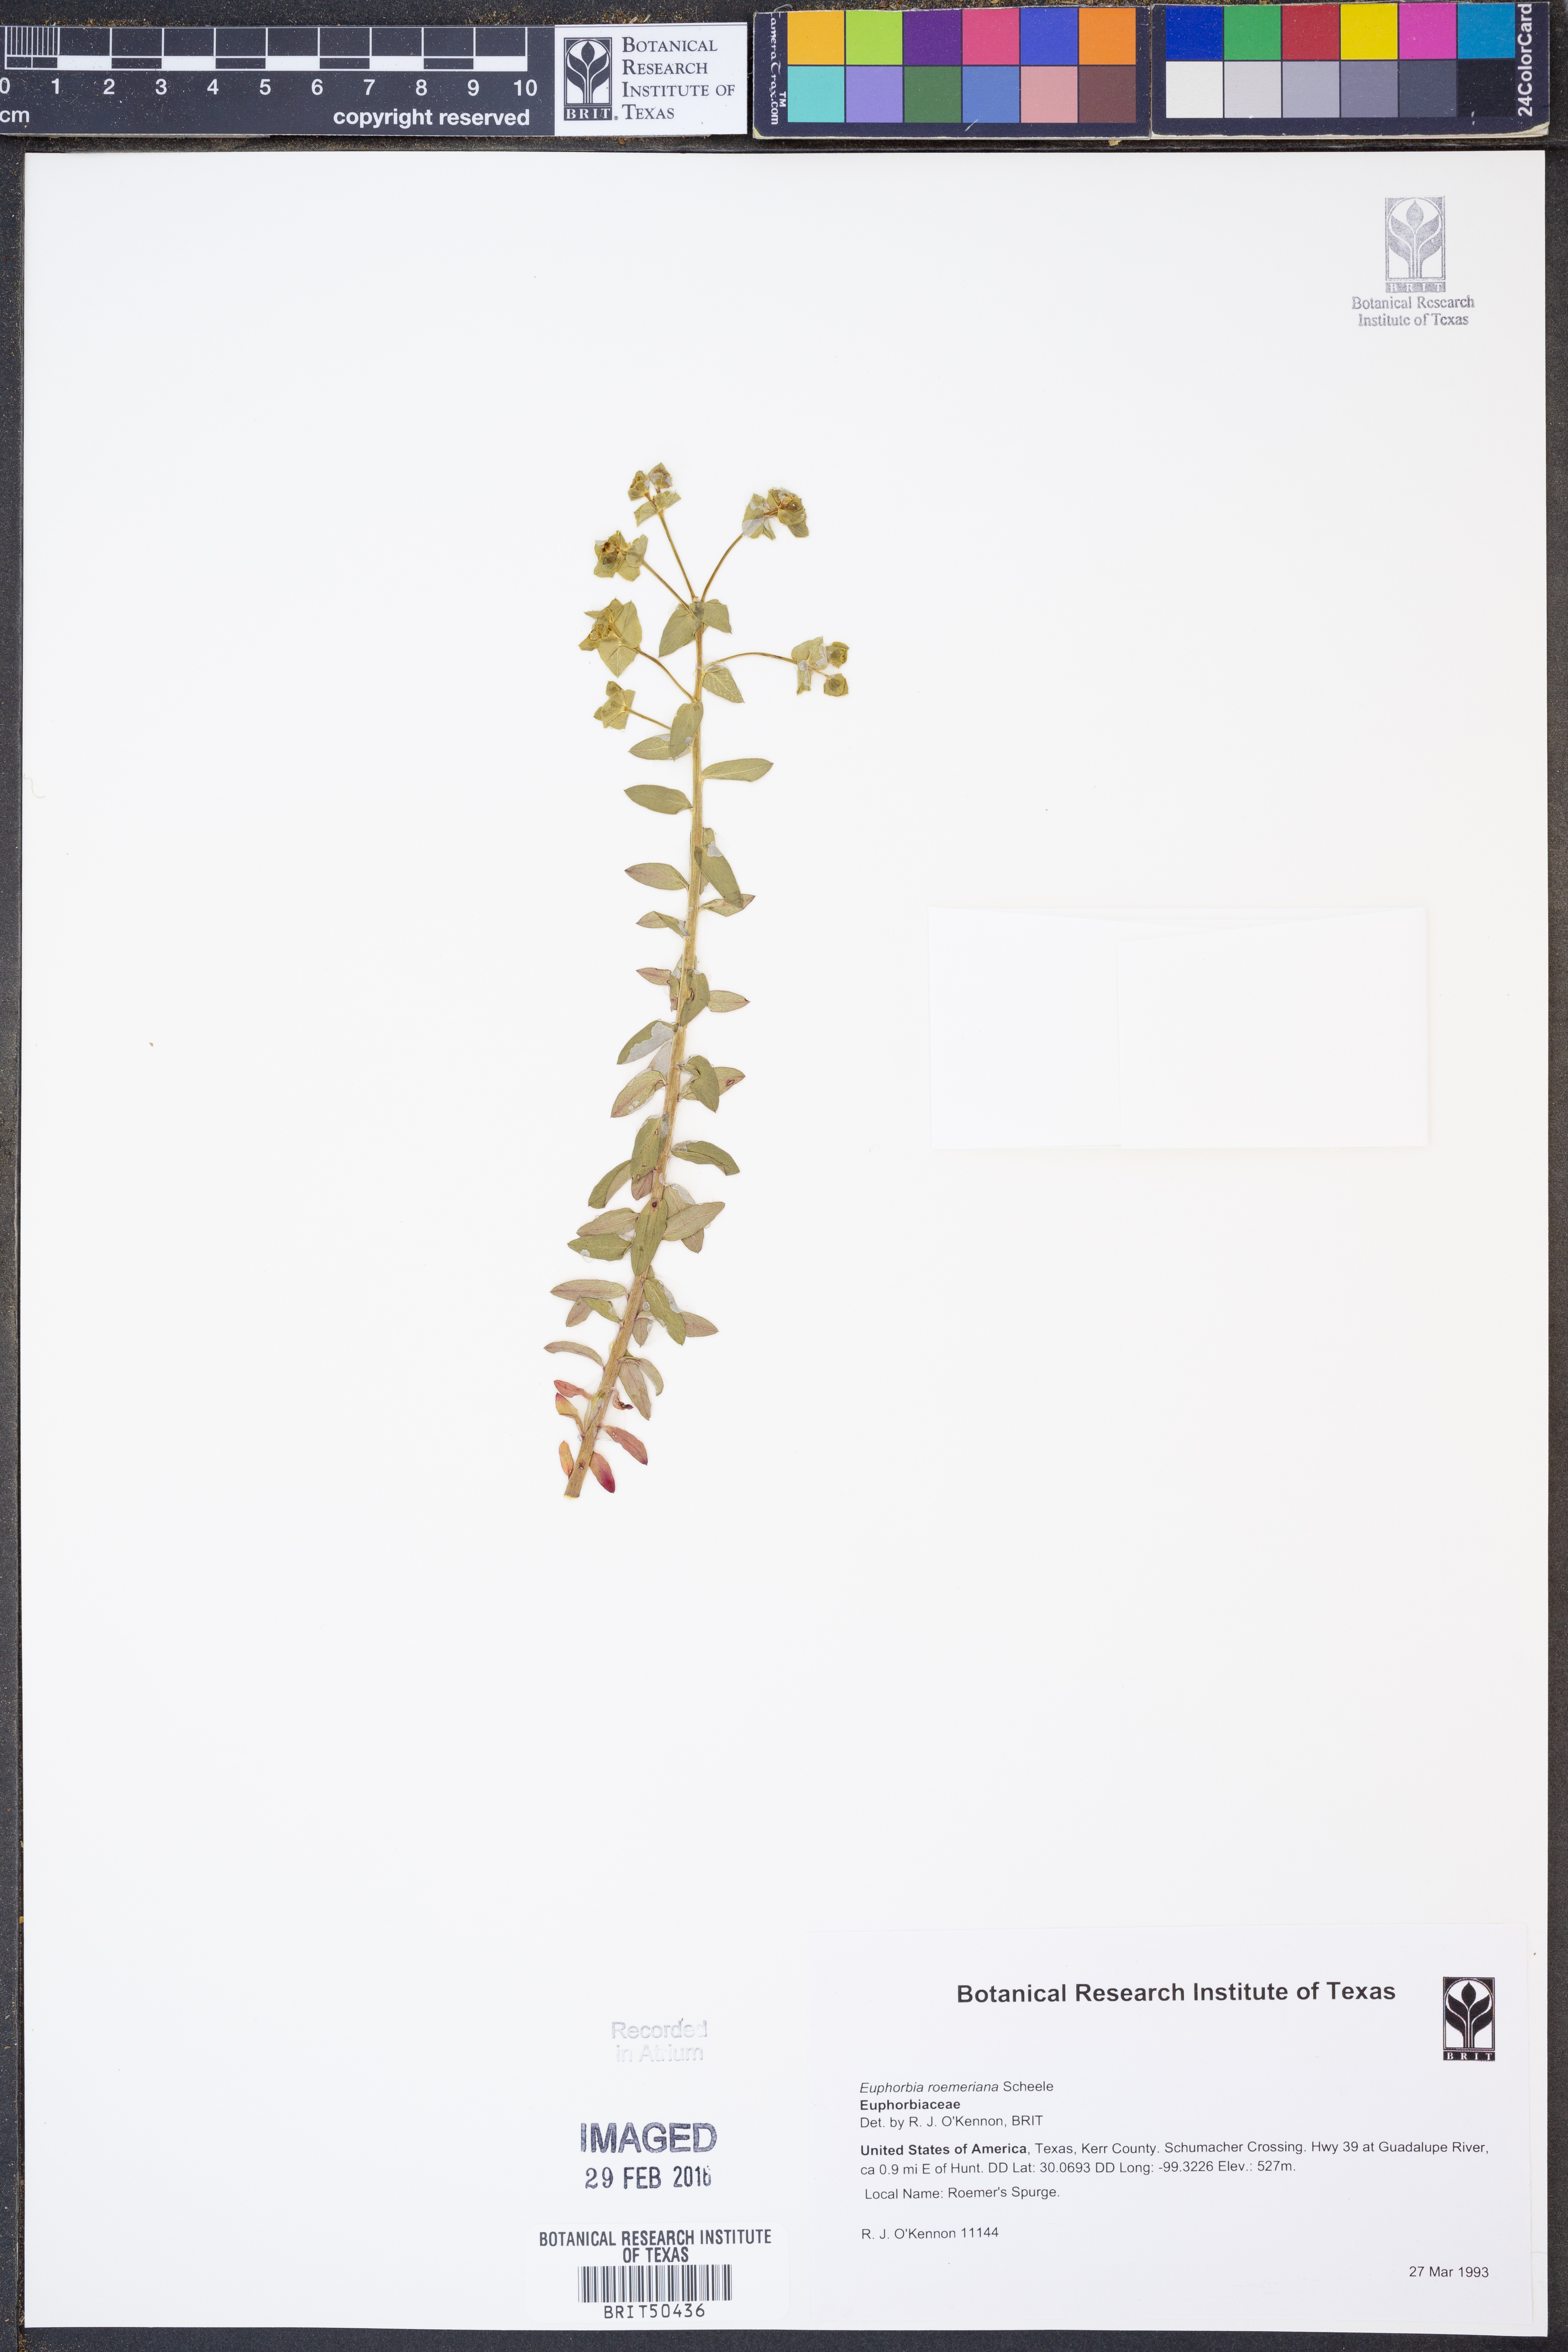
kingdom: Plantae
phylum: Tracheophyta
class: Magnoliopsida
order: Malpighiales
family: Euphorbiaceae
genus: Euphorbia
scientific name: Euphorbia roemeriana
